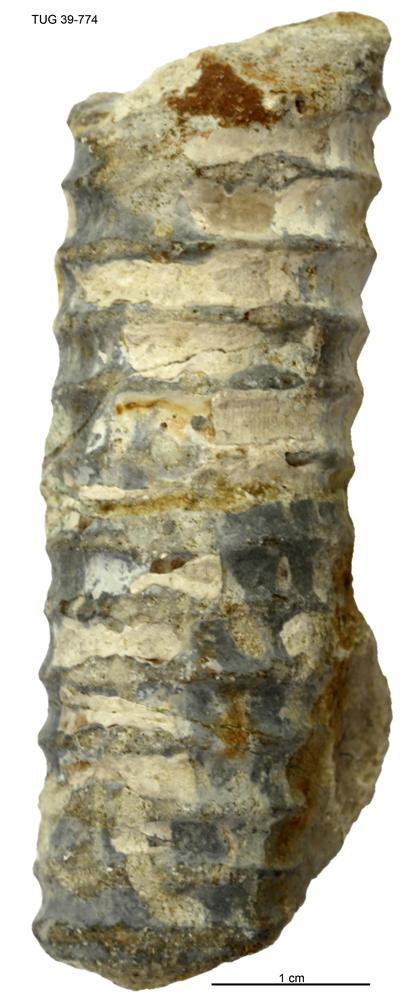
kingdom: Animalia
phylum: Mollusca
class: Cephalopoda
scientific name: Cephalopoda
